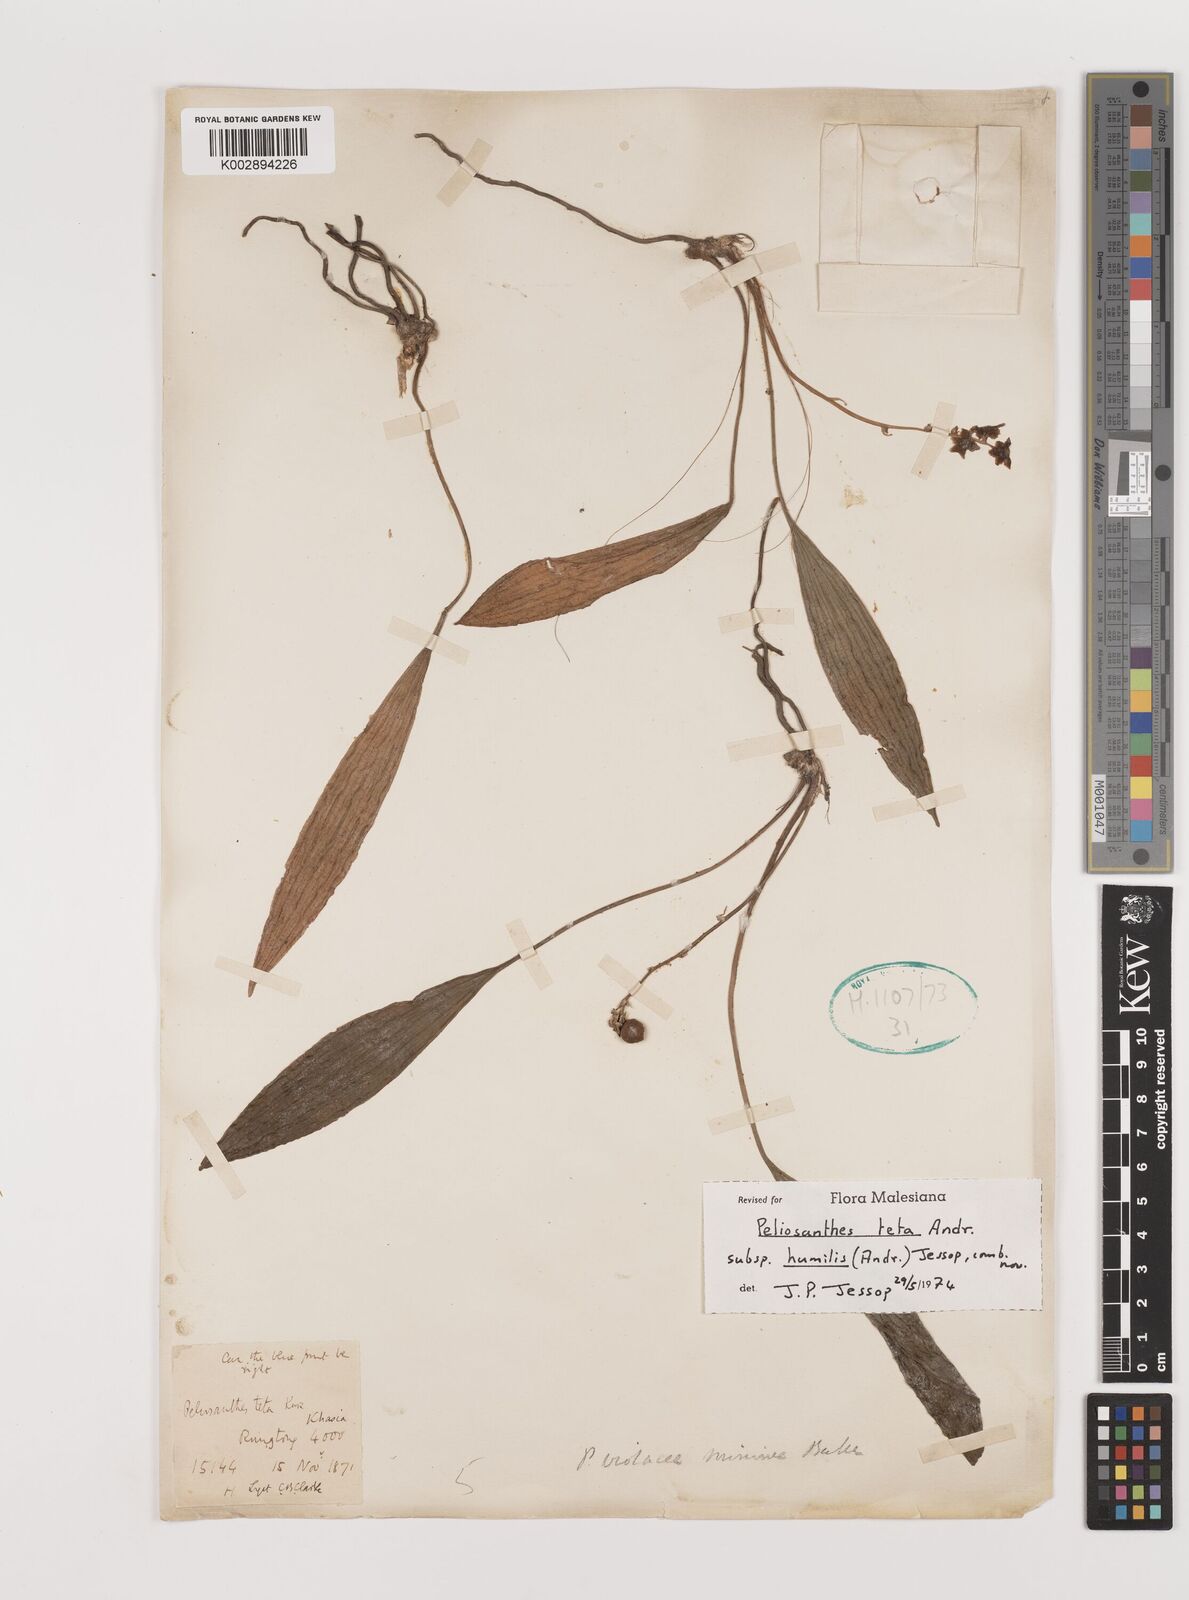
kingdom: Plantae
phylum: Tracheophyta
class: Liliopsida
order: Asparagales
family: Asparagaceae
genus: Peliosanthes
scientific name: Peliosanthes teta
